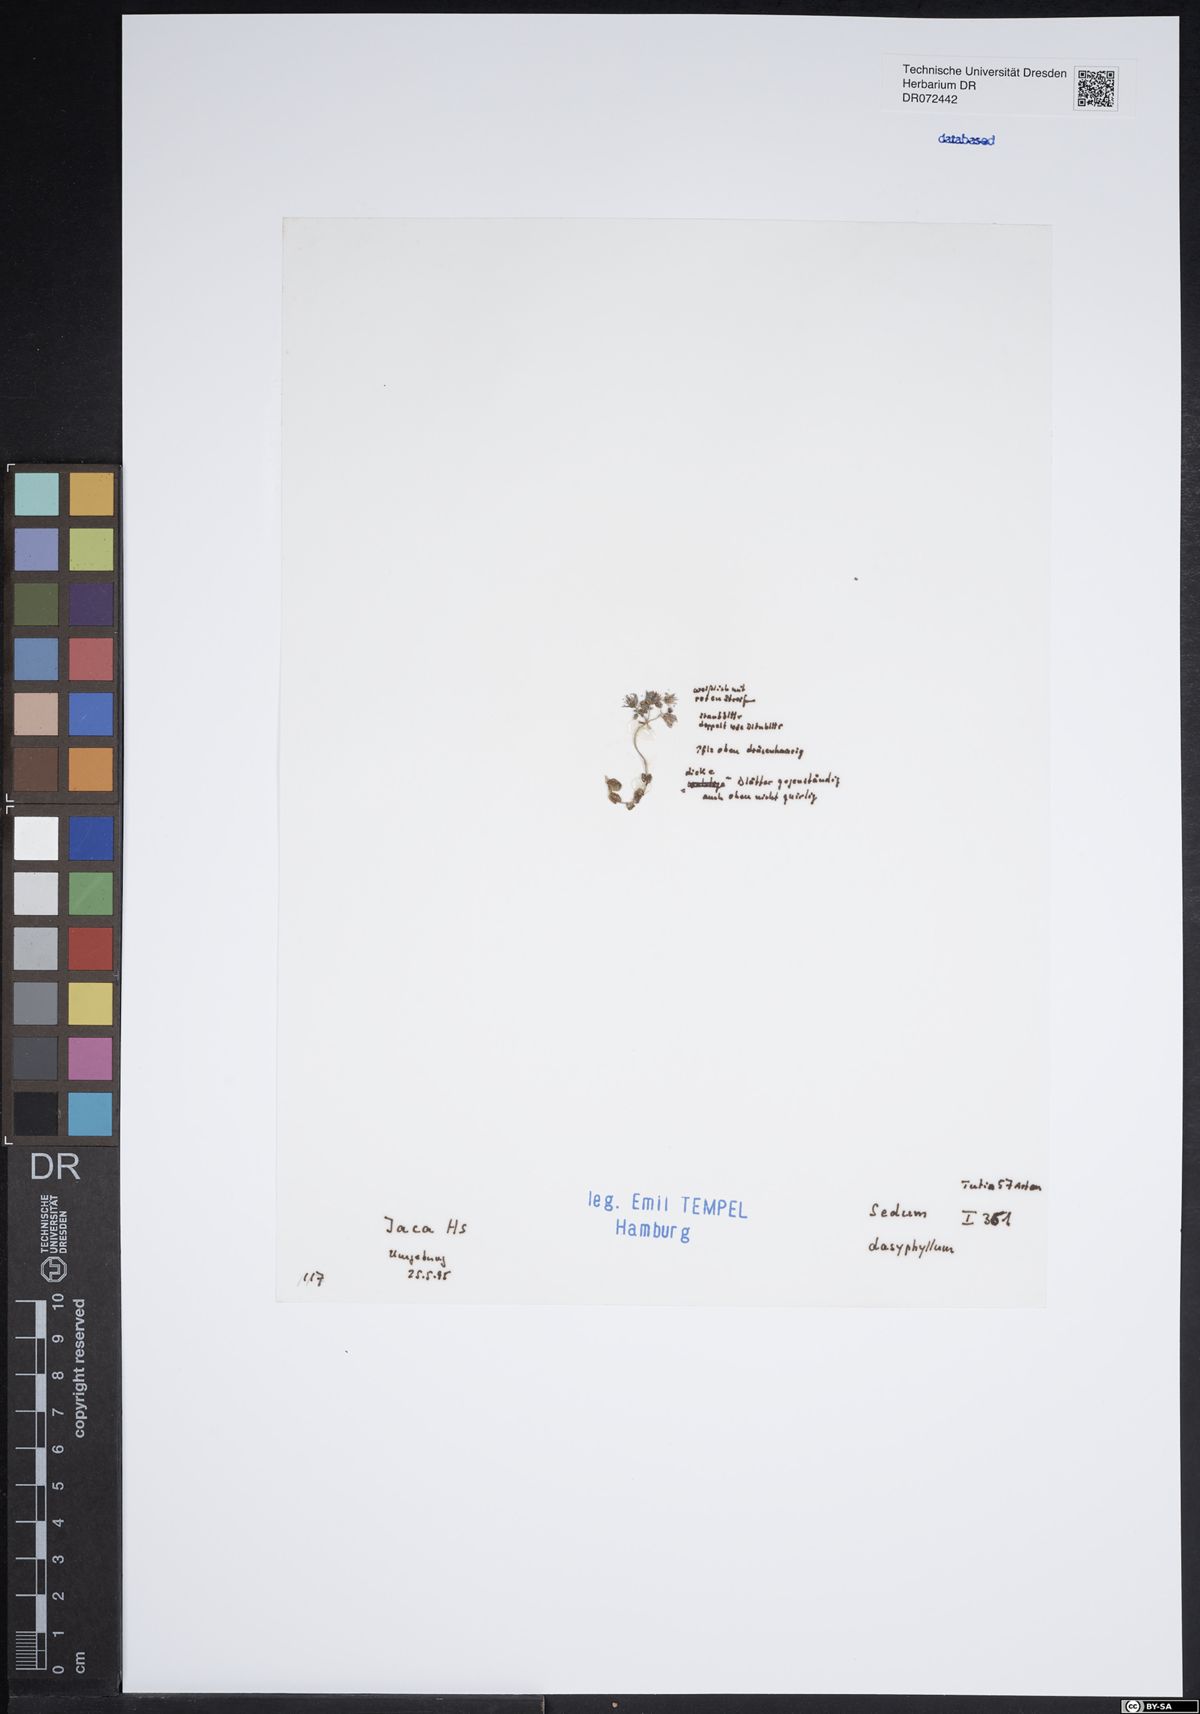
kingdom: Plantae
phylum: Tracheophyta
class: Magnoliopsida
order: Saxifragales
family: Crassulaceae
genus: Sedum
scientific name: Sedum dasyphyllum
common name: Thick-leaf stonecrop
